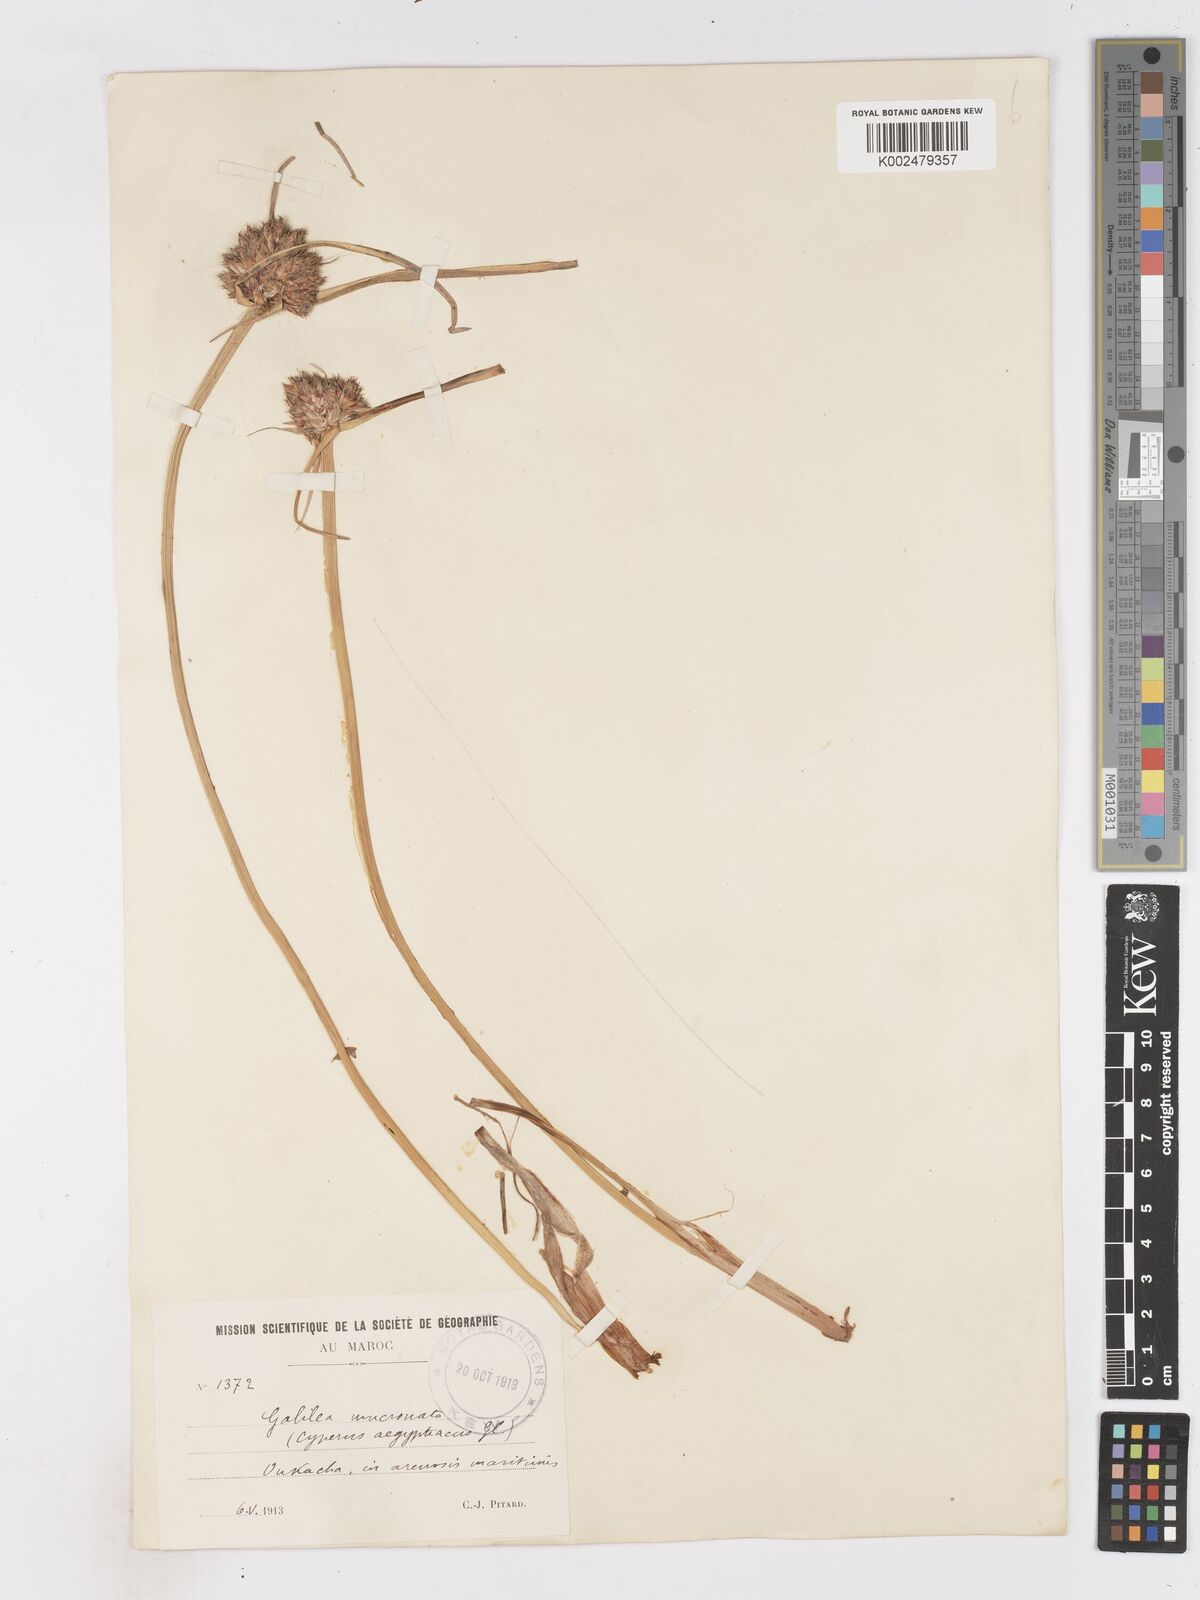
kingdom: Plantae
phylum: Tracheophyta
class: Liliopsida
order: Poales
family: Cyperaceae
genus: Cyperus
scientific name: Cyperus capitatus
